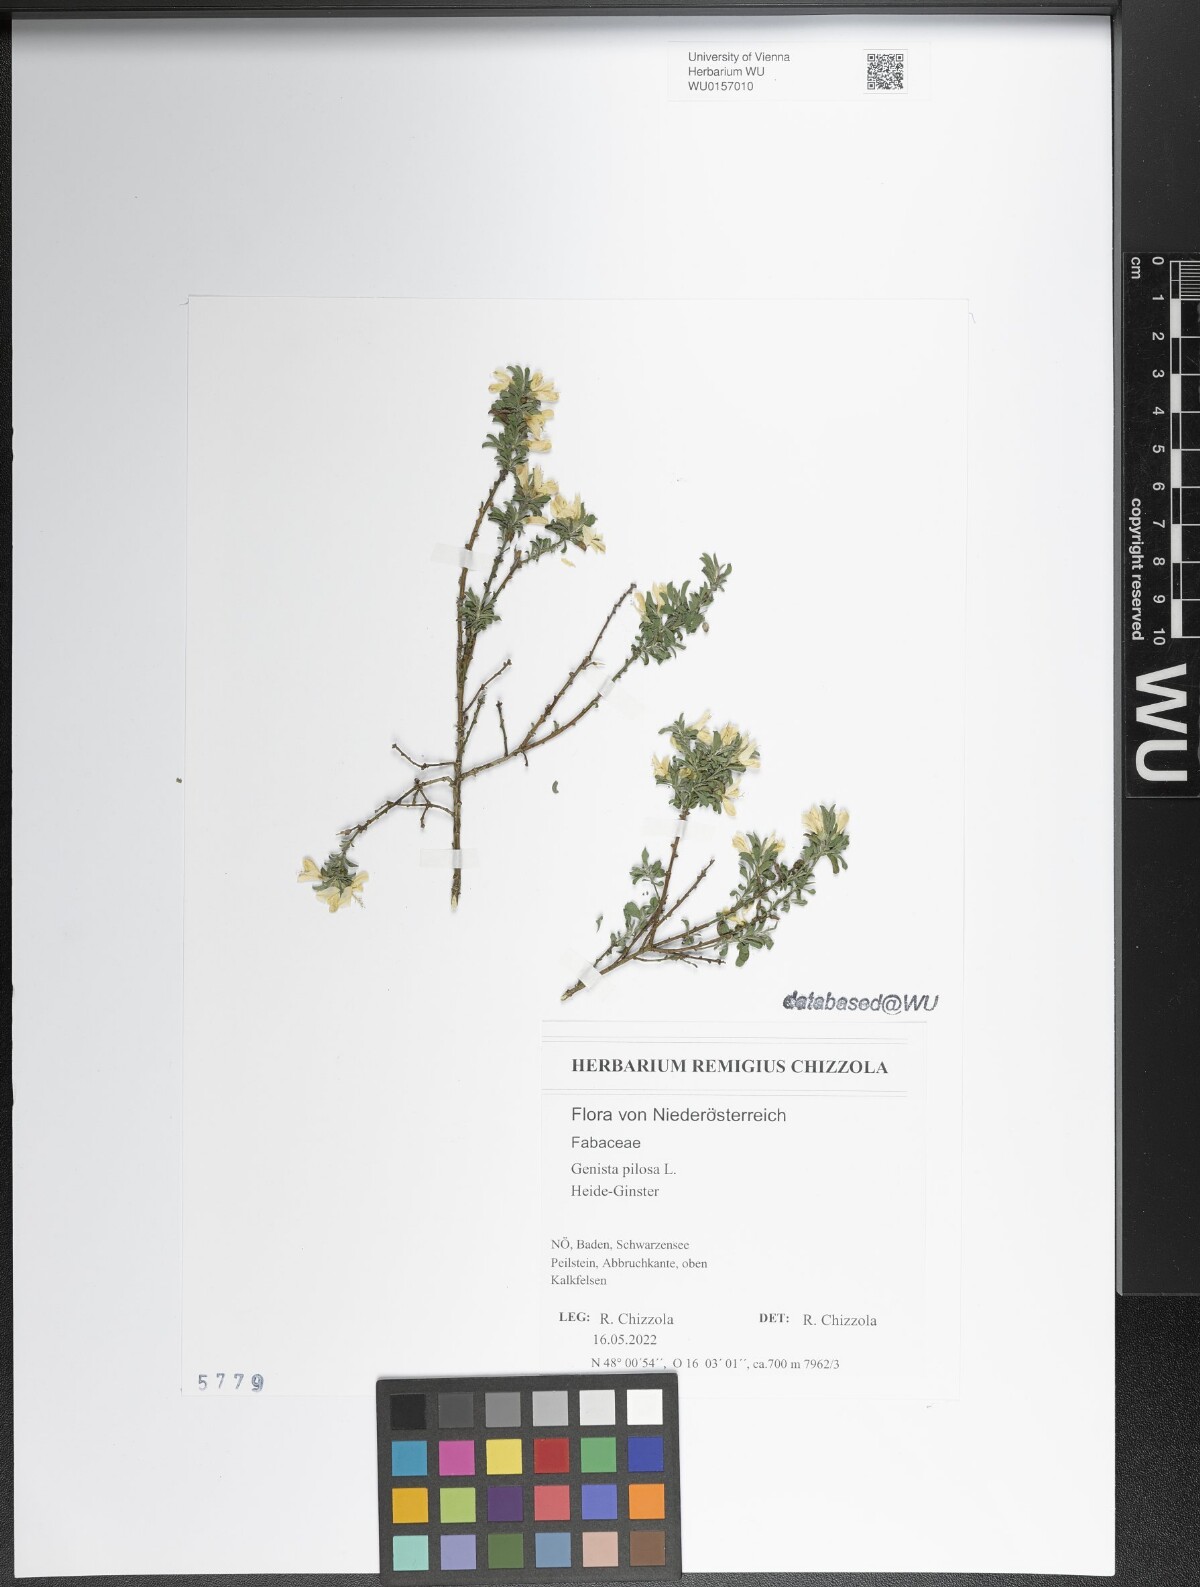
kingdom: Plantae
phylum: Tracheophyta
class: Magnoliopsida
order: Fabales
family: Fabaceae
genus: Genista
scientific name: Genista pilosa
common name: Hairy greenweed
